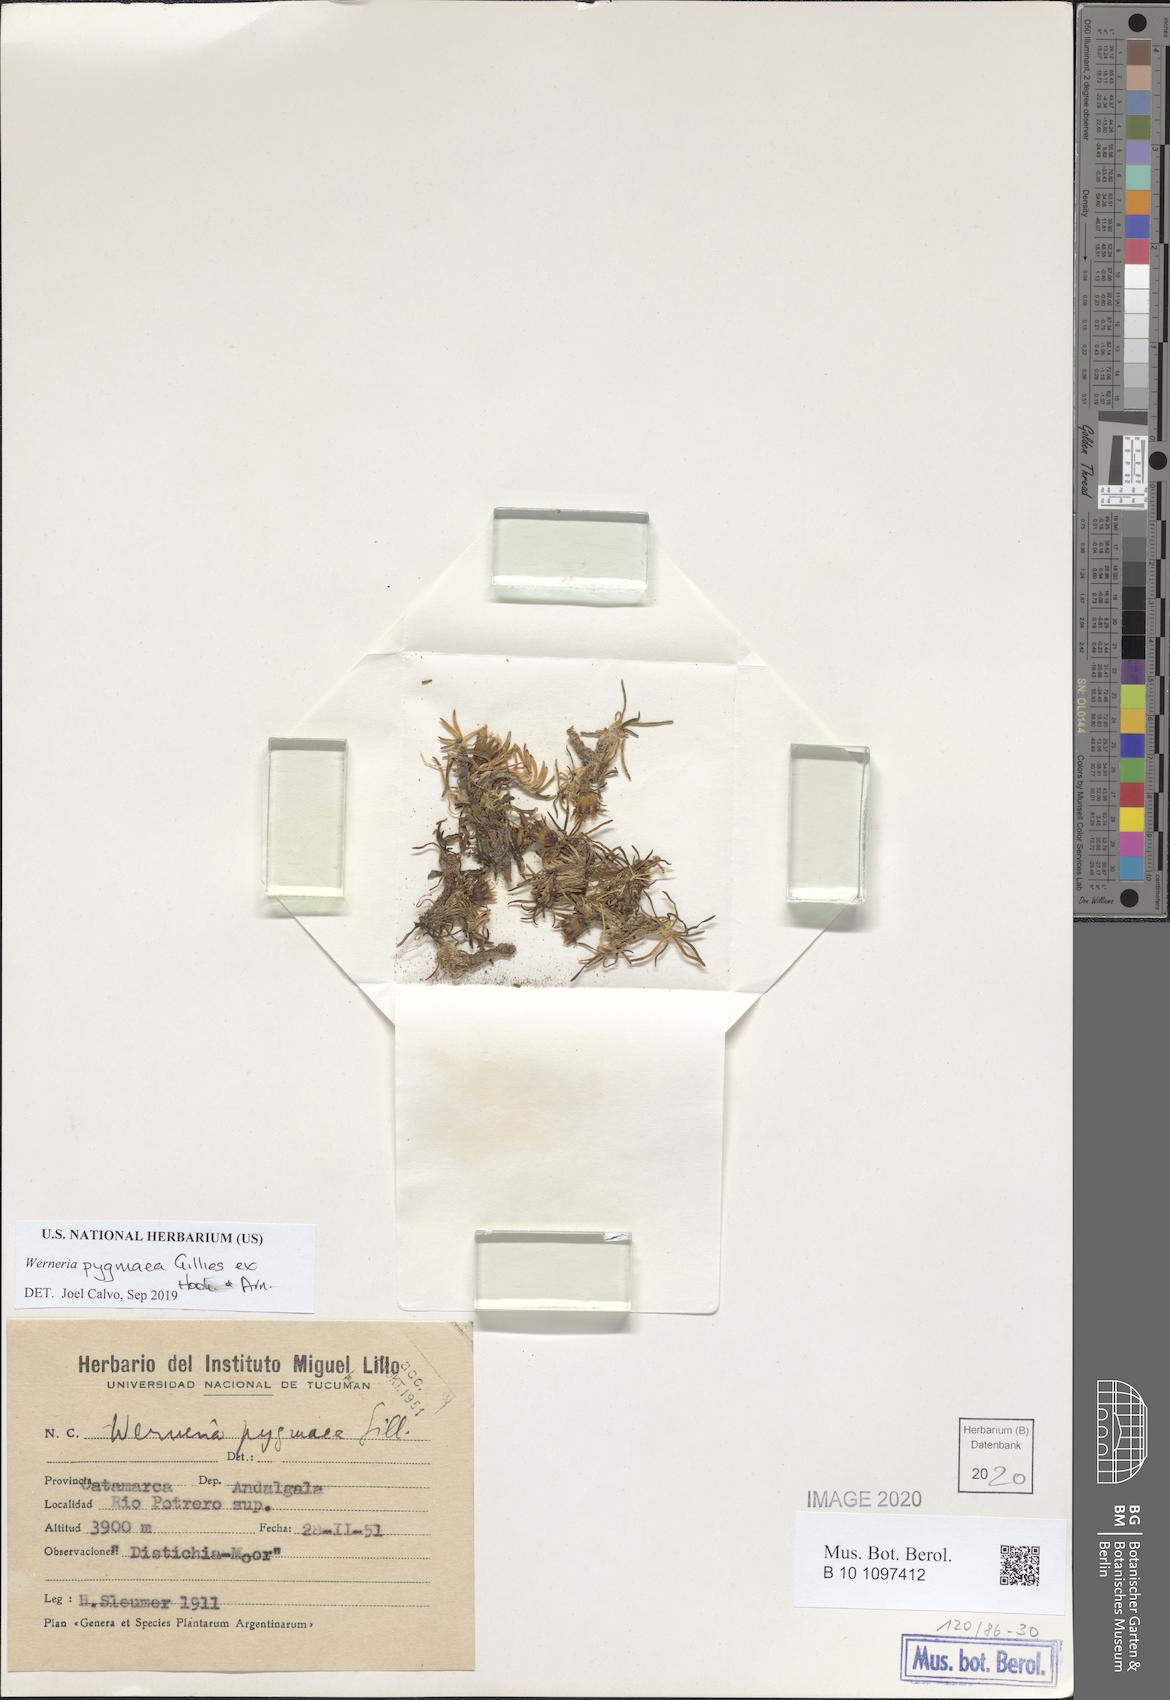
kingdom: Plantae
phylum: Tracheophyta
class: Magnoliopsida
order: Asterales
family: Asteraceae
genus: Rockhausenia
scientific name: Rockhausenia pygmaea
